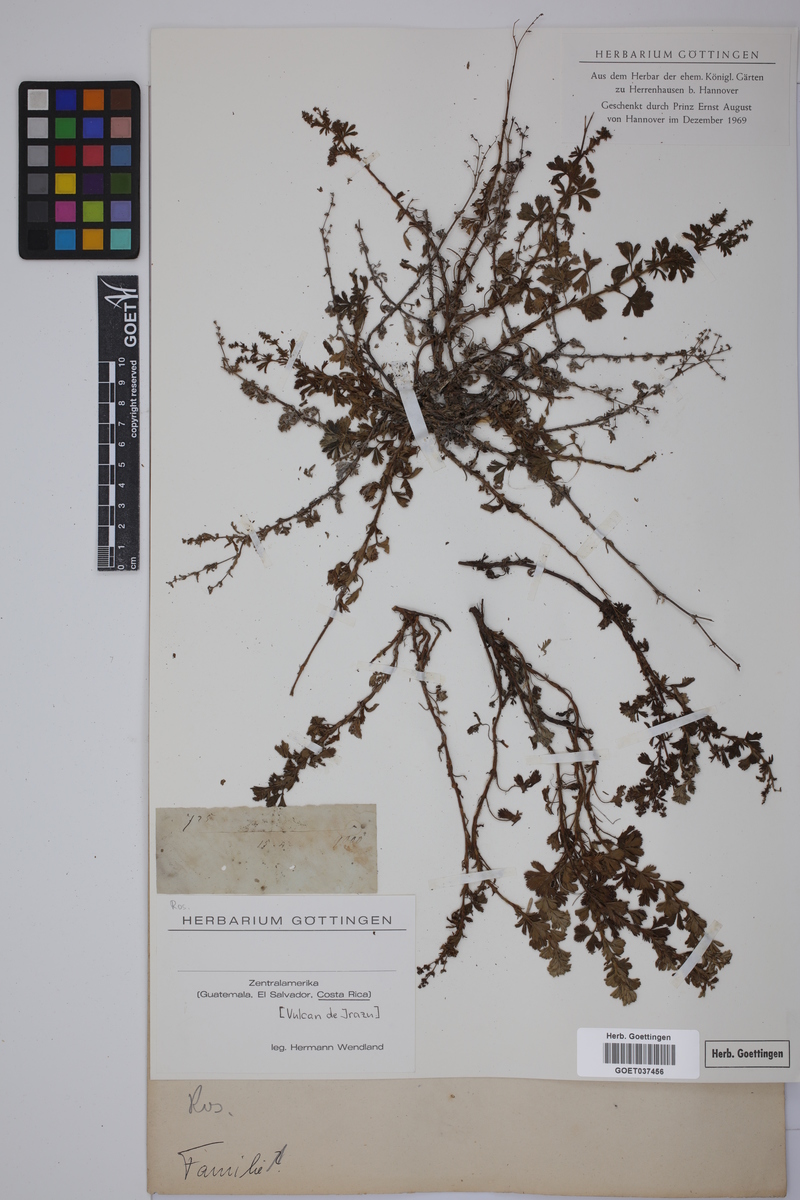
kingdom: Plantae
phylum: Tracheophyta
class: Magnoliopsida
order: Rosales
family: Rosaceae
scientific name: Rosaceae
